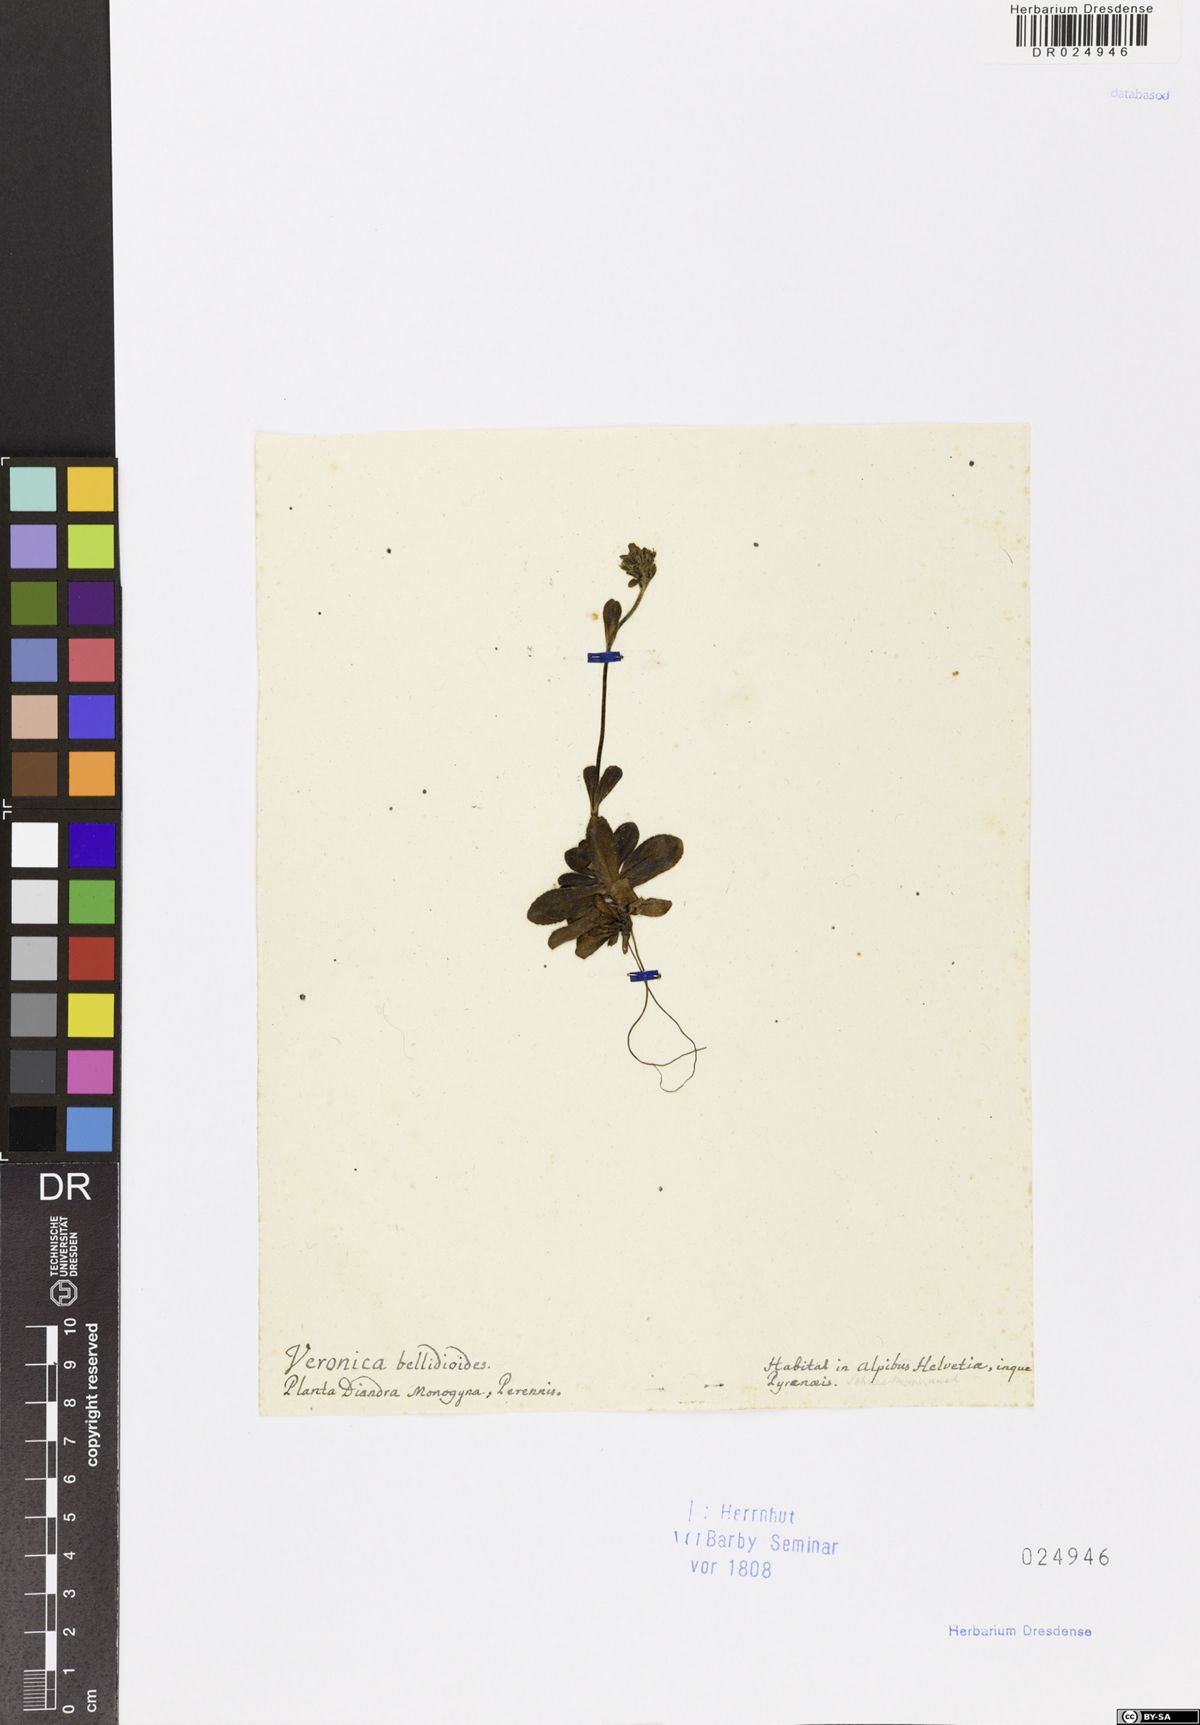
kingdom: Plantae
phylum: Tracheophyta
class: Magnoliopsida
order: Lamiales
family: Plantaginaceae
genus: Veronica
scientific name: Veronica bellidioides
